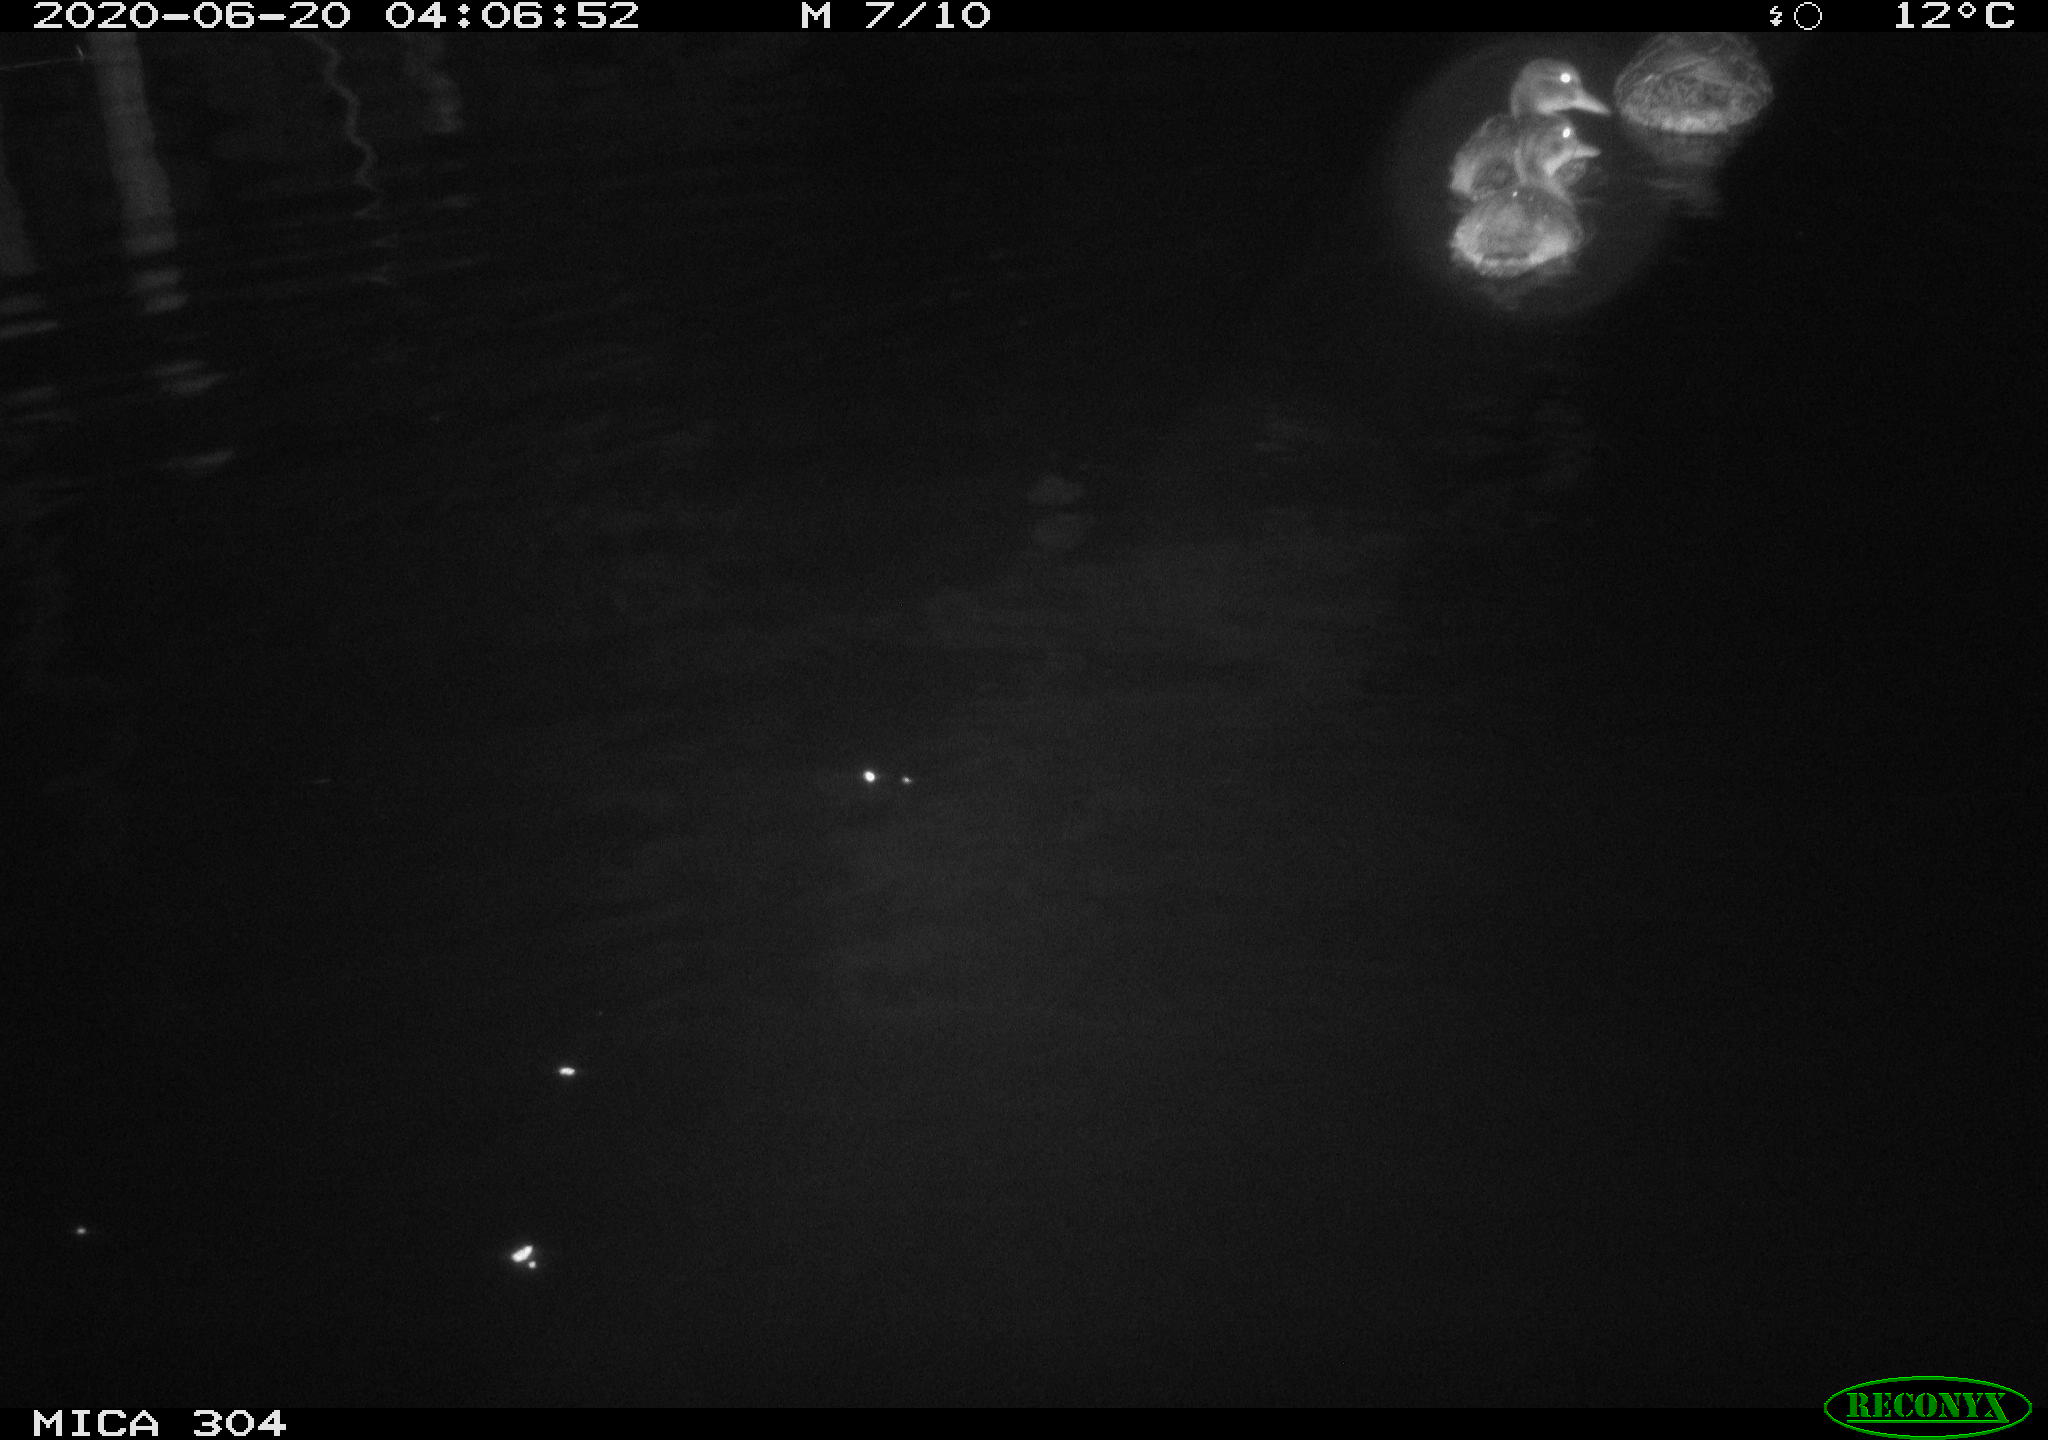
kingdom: Animalia
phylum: Chordata
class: Aves
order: Anseriformes
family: Anatidae
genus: Anas
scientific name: Anas platyrhynchos
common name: Mallard
